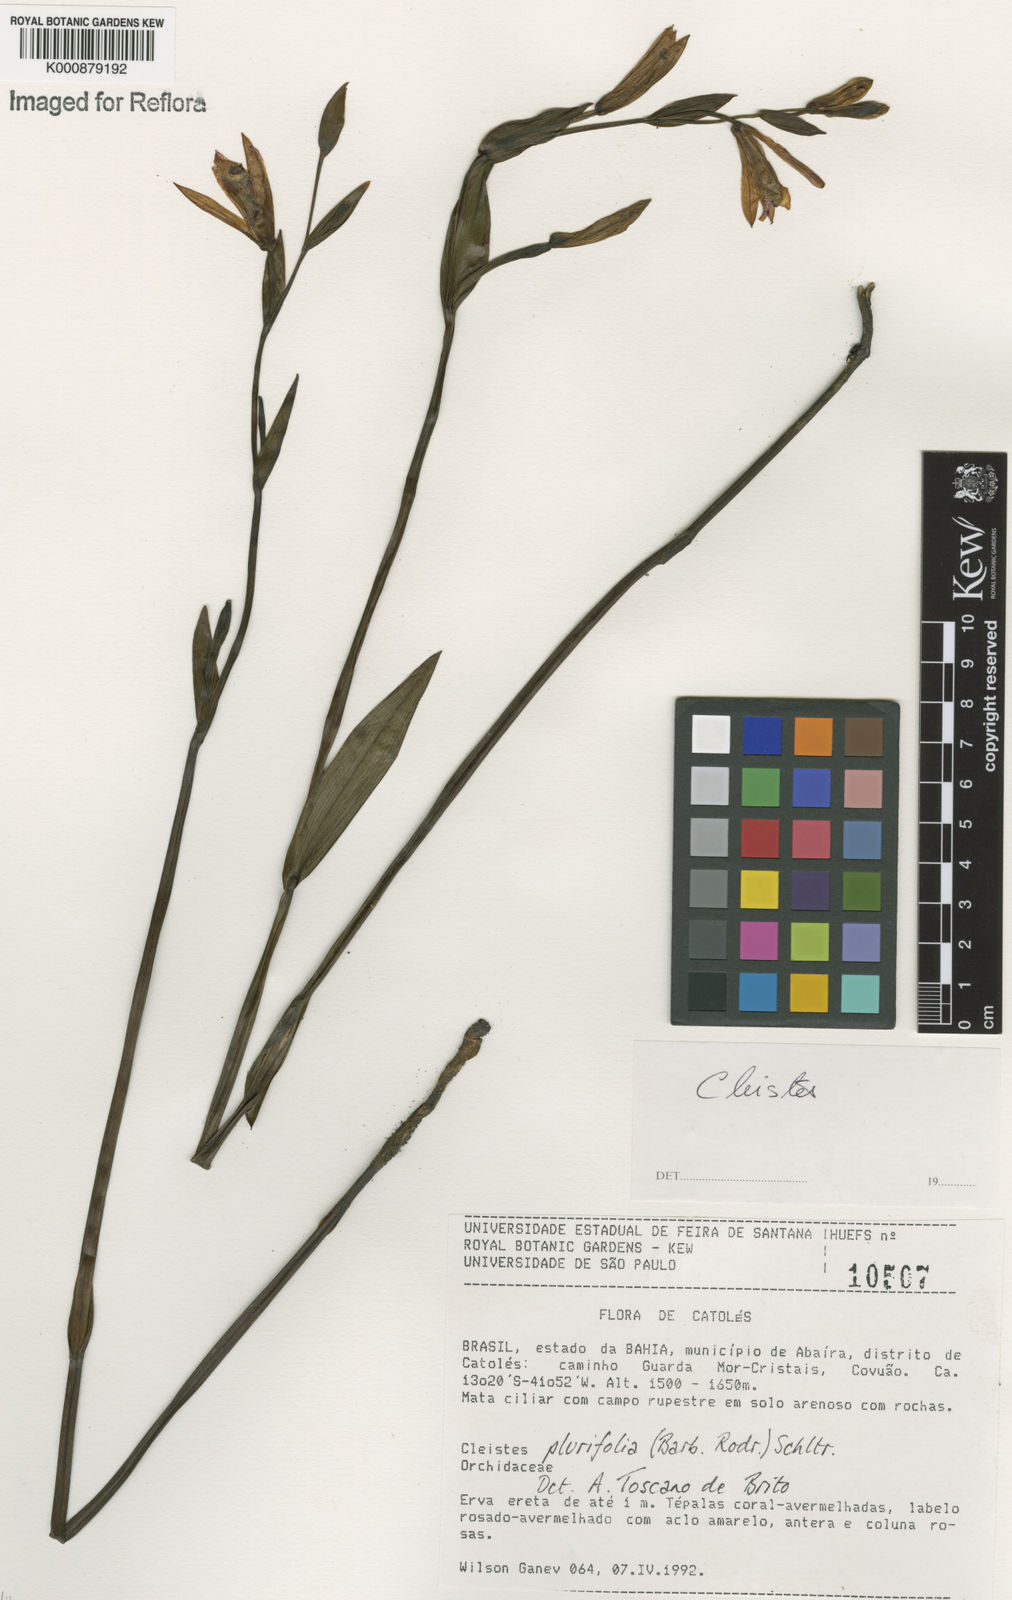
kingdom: Plantae
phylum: Tracheophyta
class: Liliopsida
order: Asparagales
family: Orchidaceae
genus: Cleistes
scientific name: Cleistes moritzii
